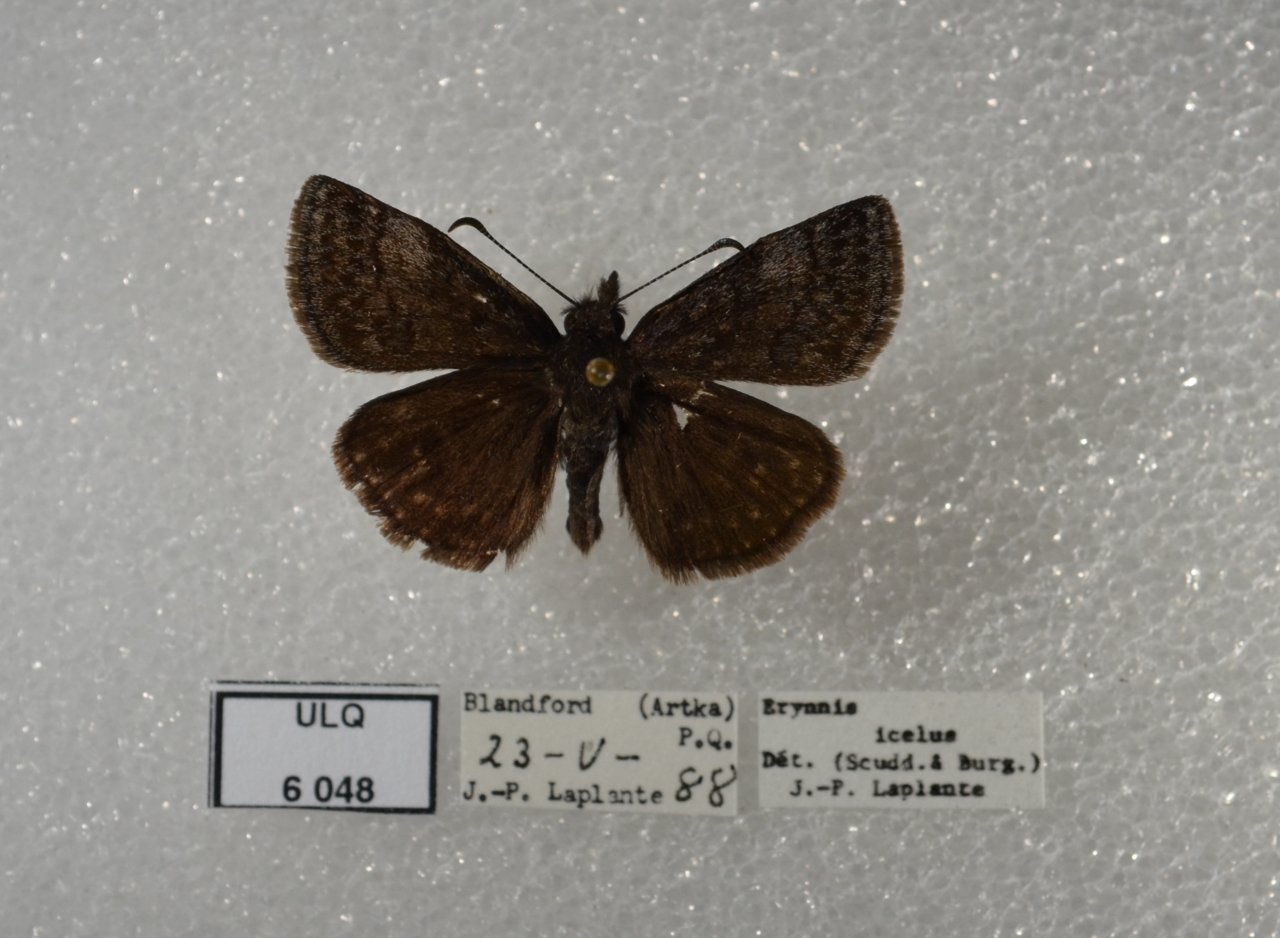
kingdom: Animalia
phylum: Arthropoda
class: Insecta
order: Lepidoptera
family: Hesperiidae
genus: Erynnis
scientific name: Erynnis icelus
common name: Dreamy Duskywing
